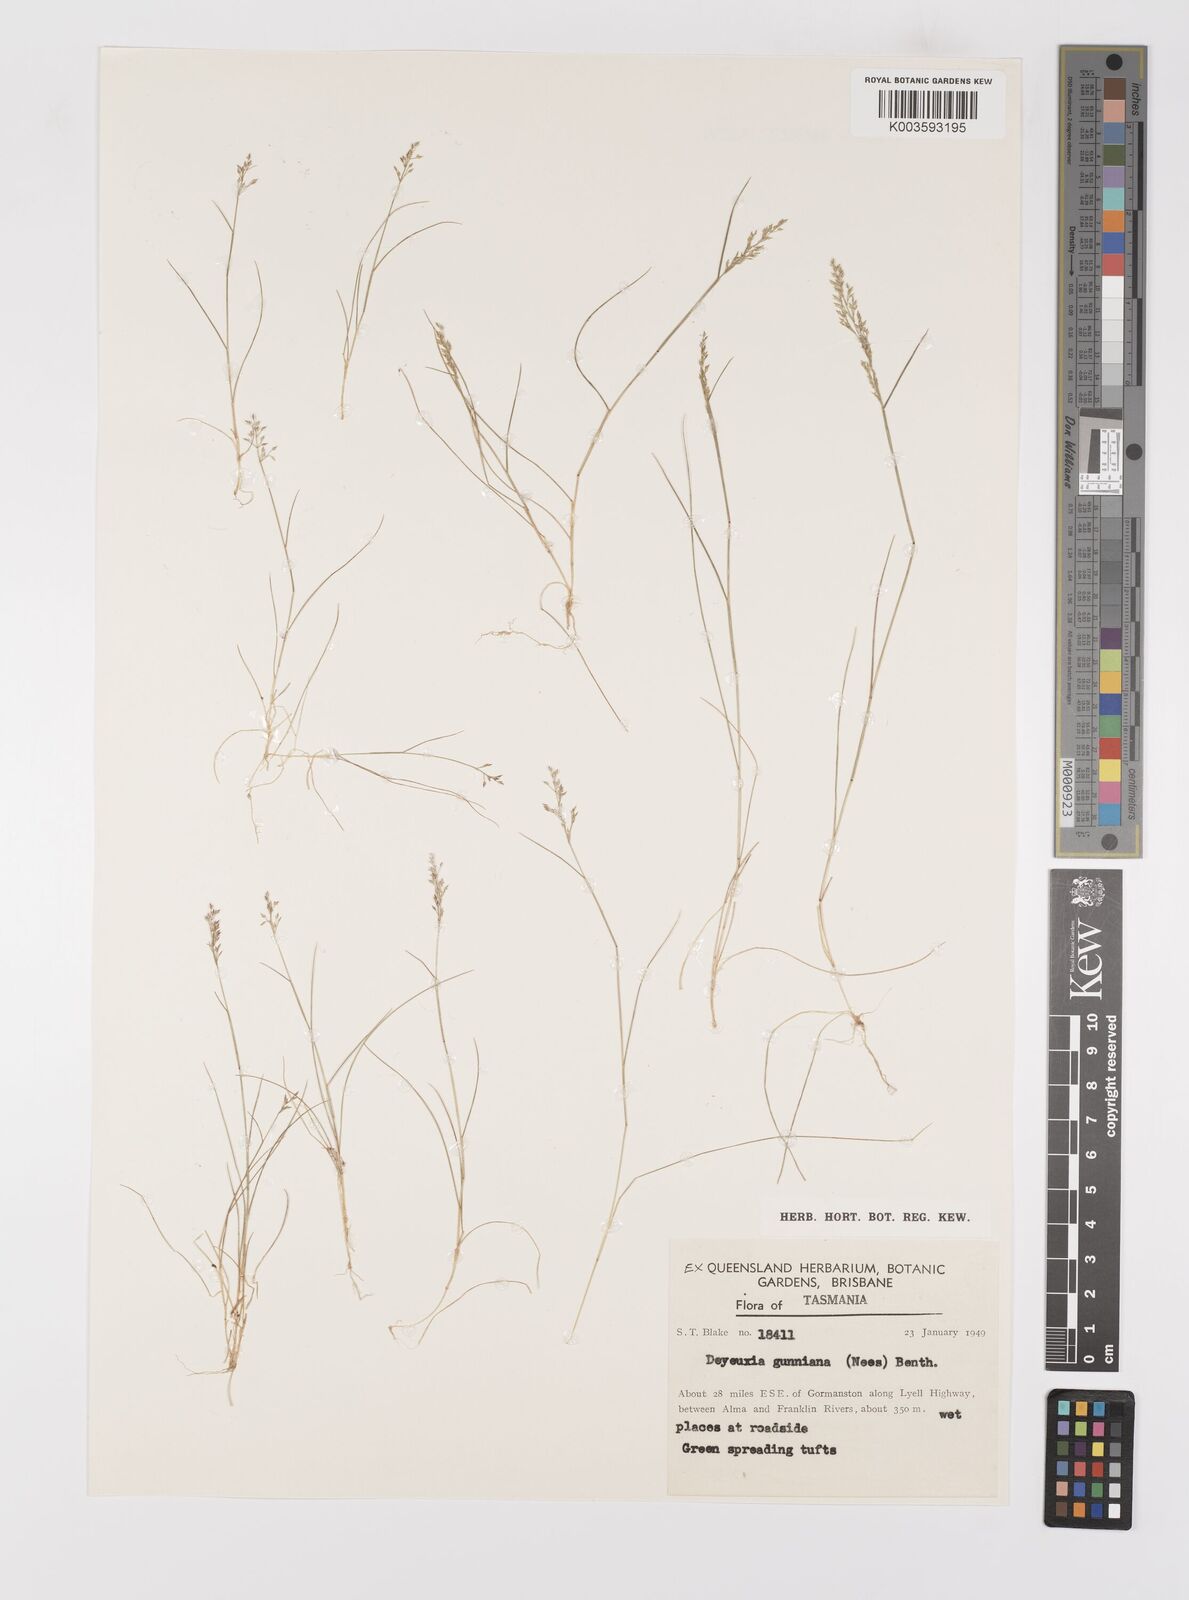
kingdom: Plantae
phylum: Tracheophyta
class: Liliopsida
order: Poales
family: Poaceae
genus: Ancistragrostis
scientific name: Ancistragrostis
